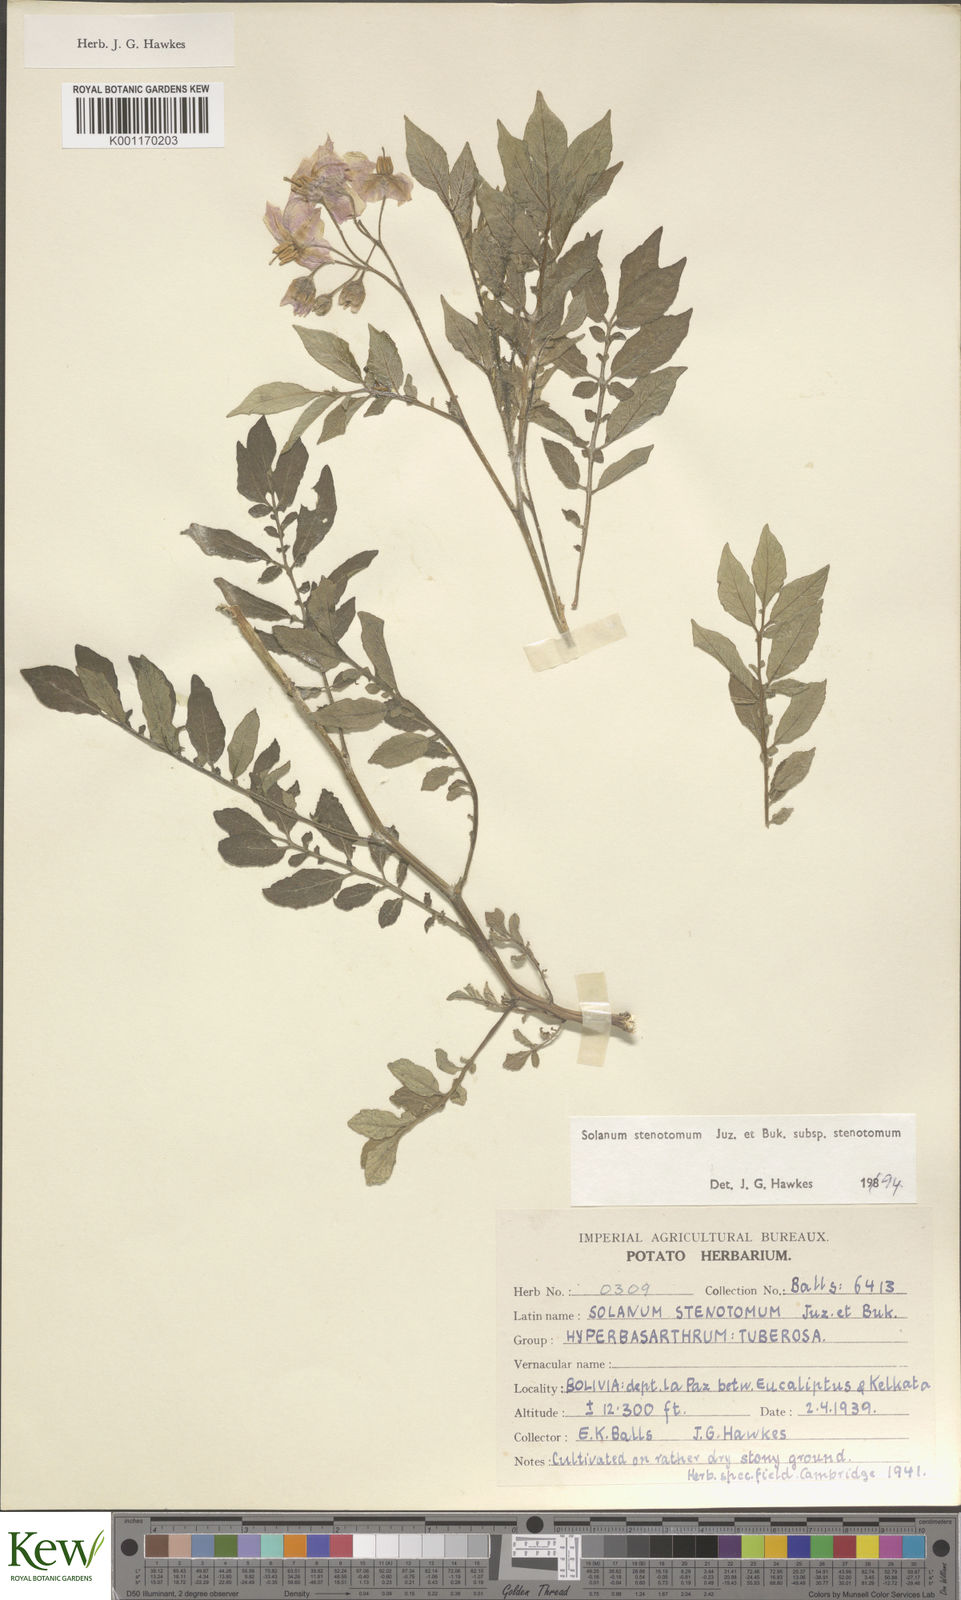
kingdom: Plantae
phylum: Tracheophyta
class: Magnoliopsida
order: Solanales
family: Solanaceae
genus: Solanum
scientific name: Solanum tuberosum
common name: Potato
